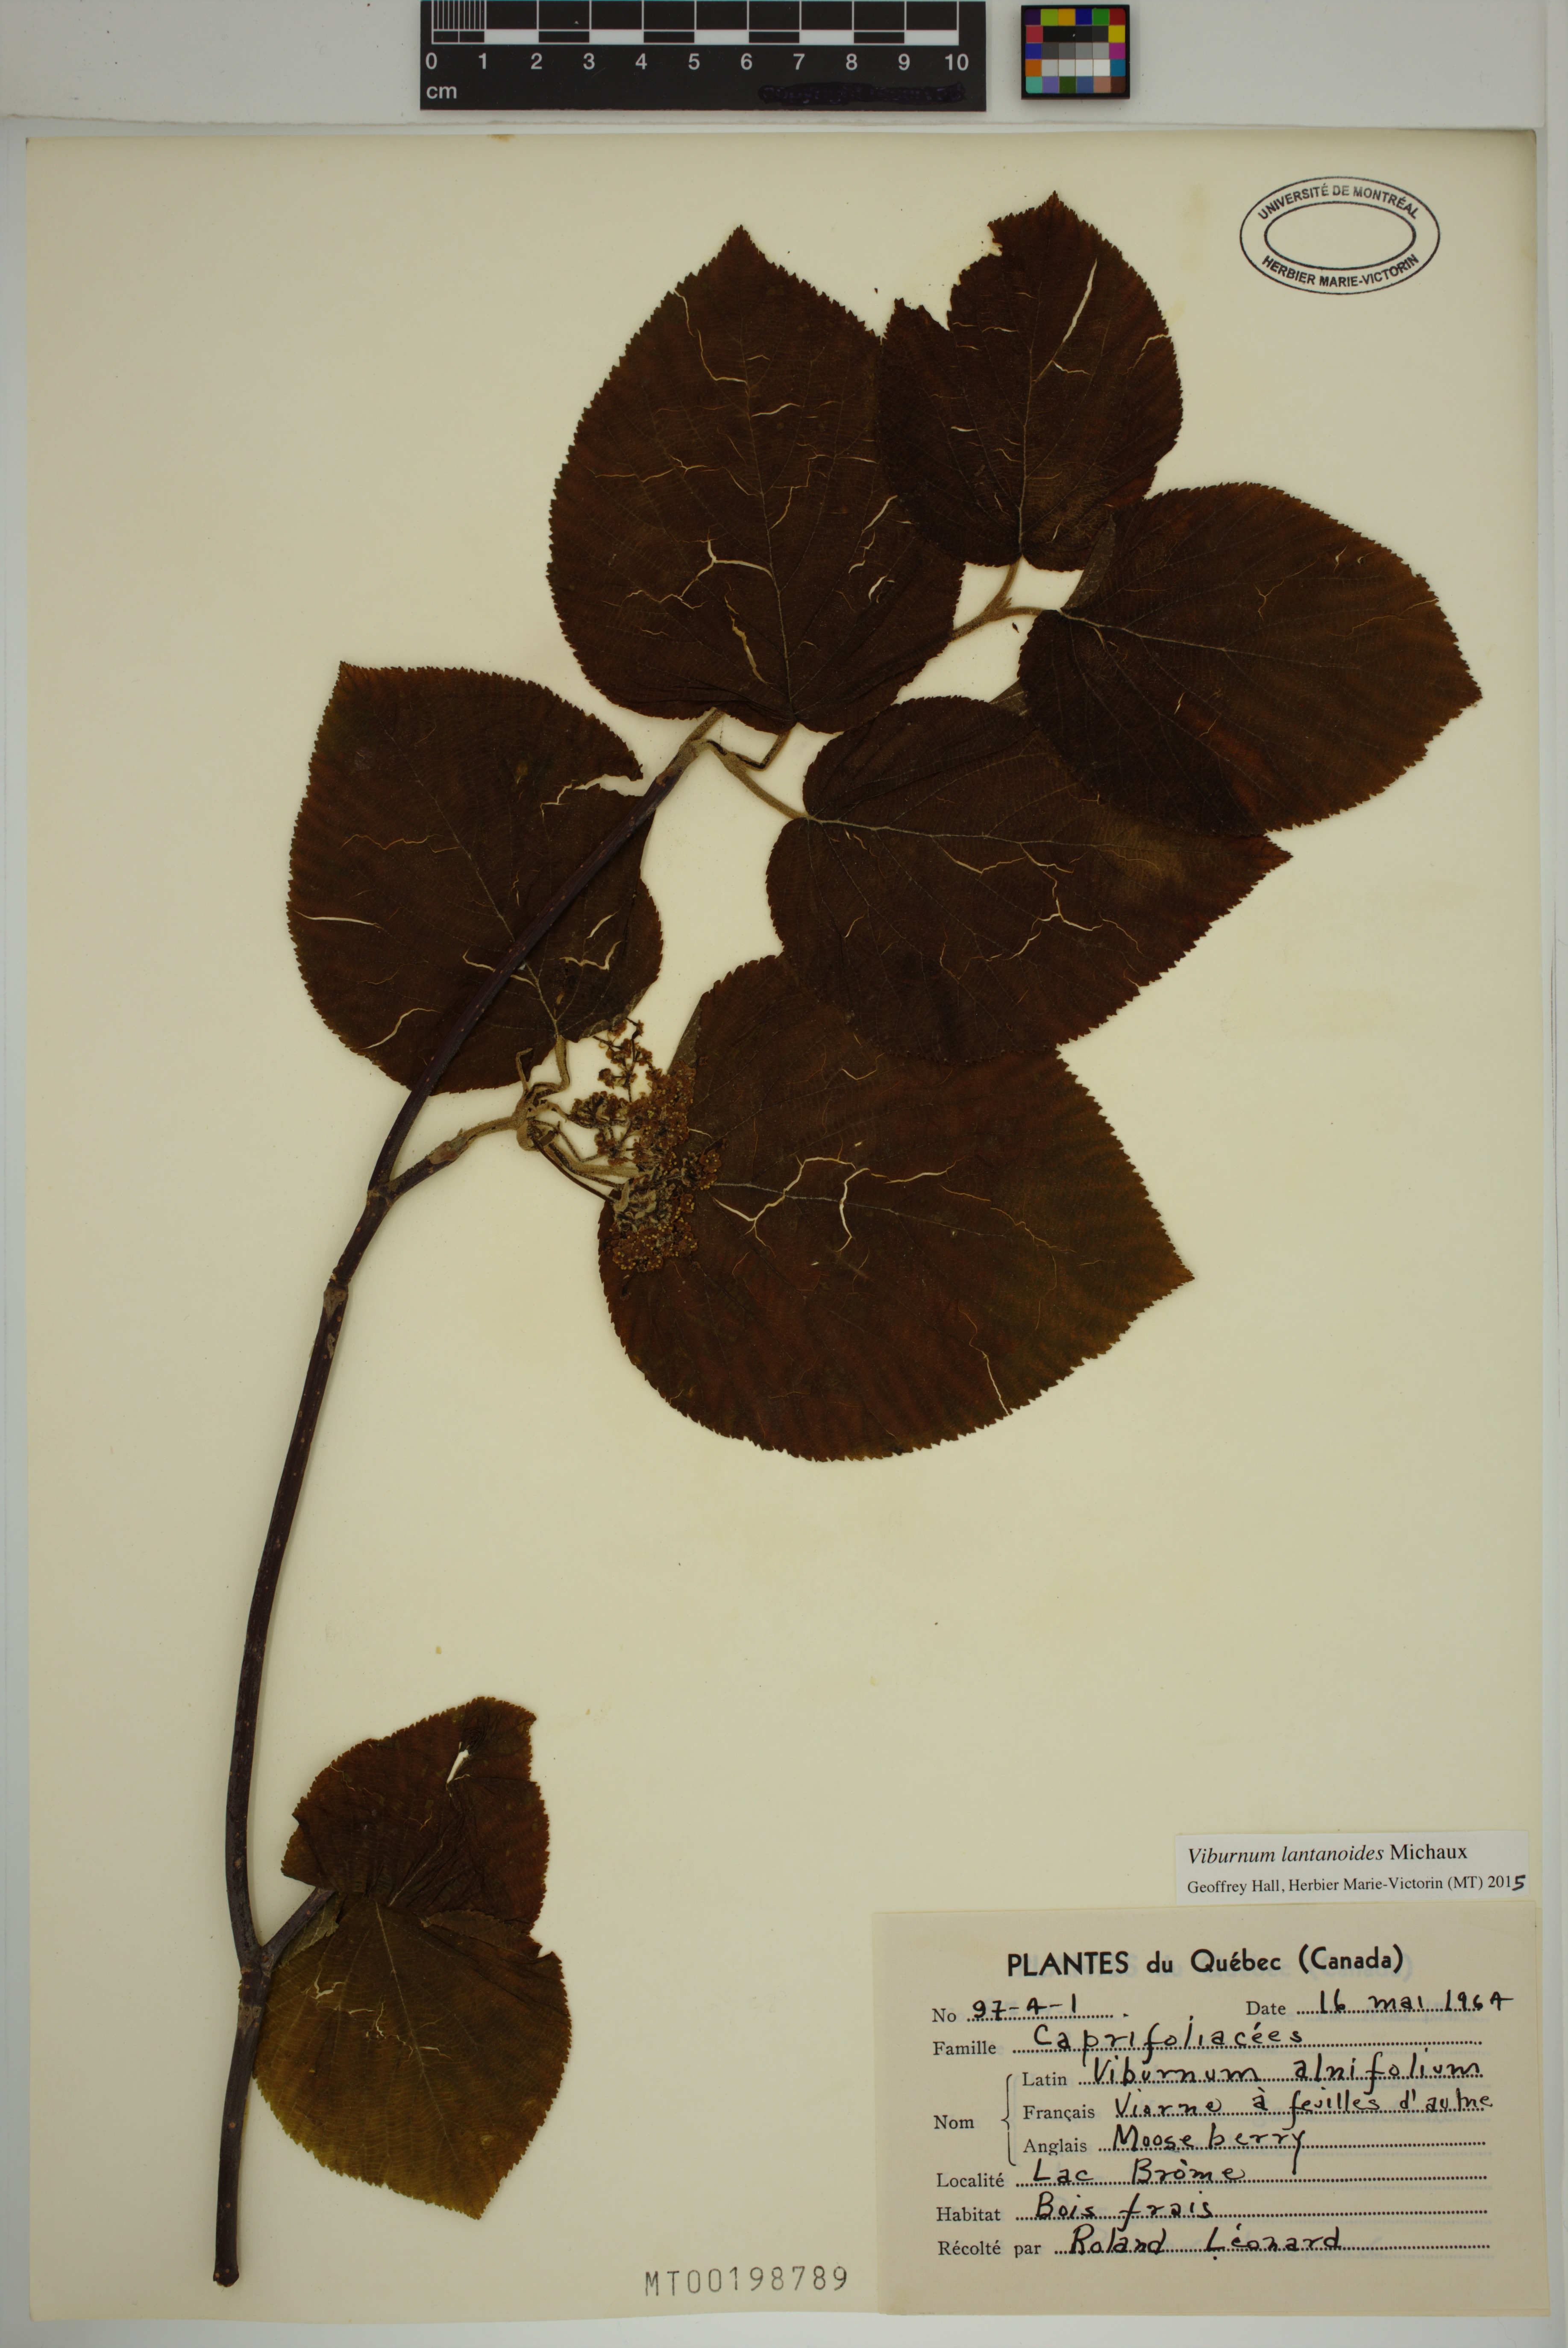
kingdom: Plantae
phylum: Tracheophyta
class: Magnoliopsida
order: Dipsacales
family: Viburnaceae
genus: Viburnum
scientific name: Viburnum lantanoides
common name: Hobblebush
